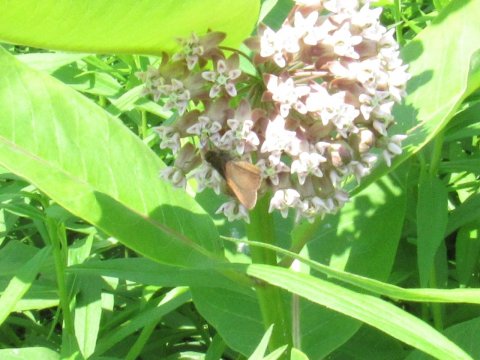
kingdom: Animalia
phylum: Arthropoda
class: Insecta
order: Lepidoptera
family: Hesperiidae
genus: Euphyes
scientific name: Euphyes vestris
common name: Dun Skipper
